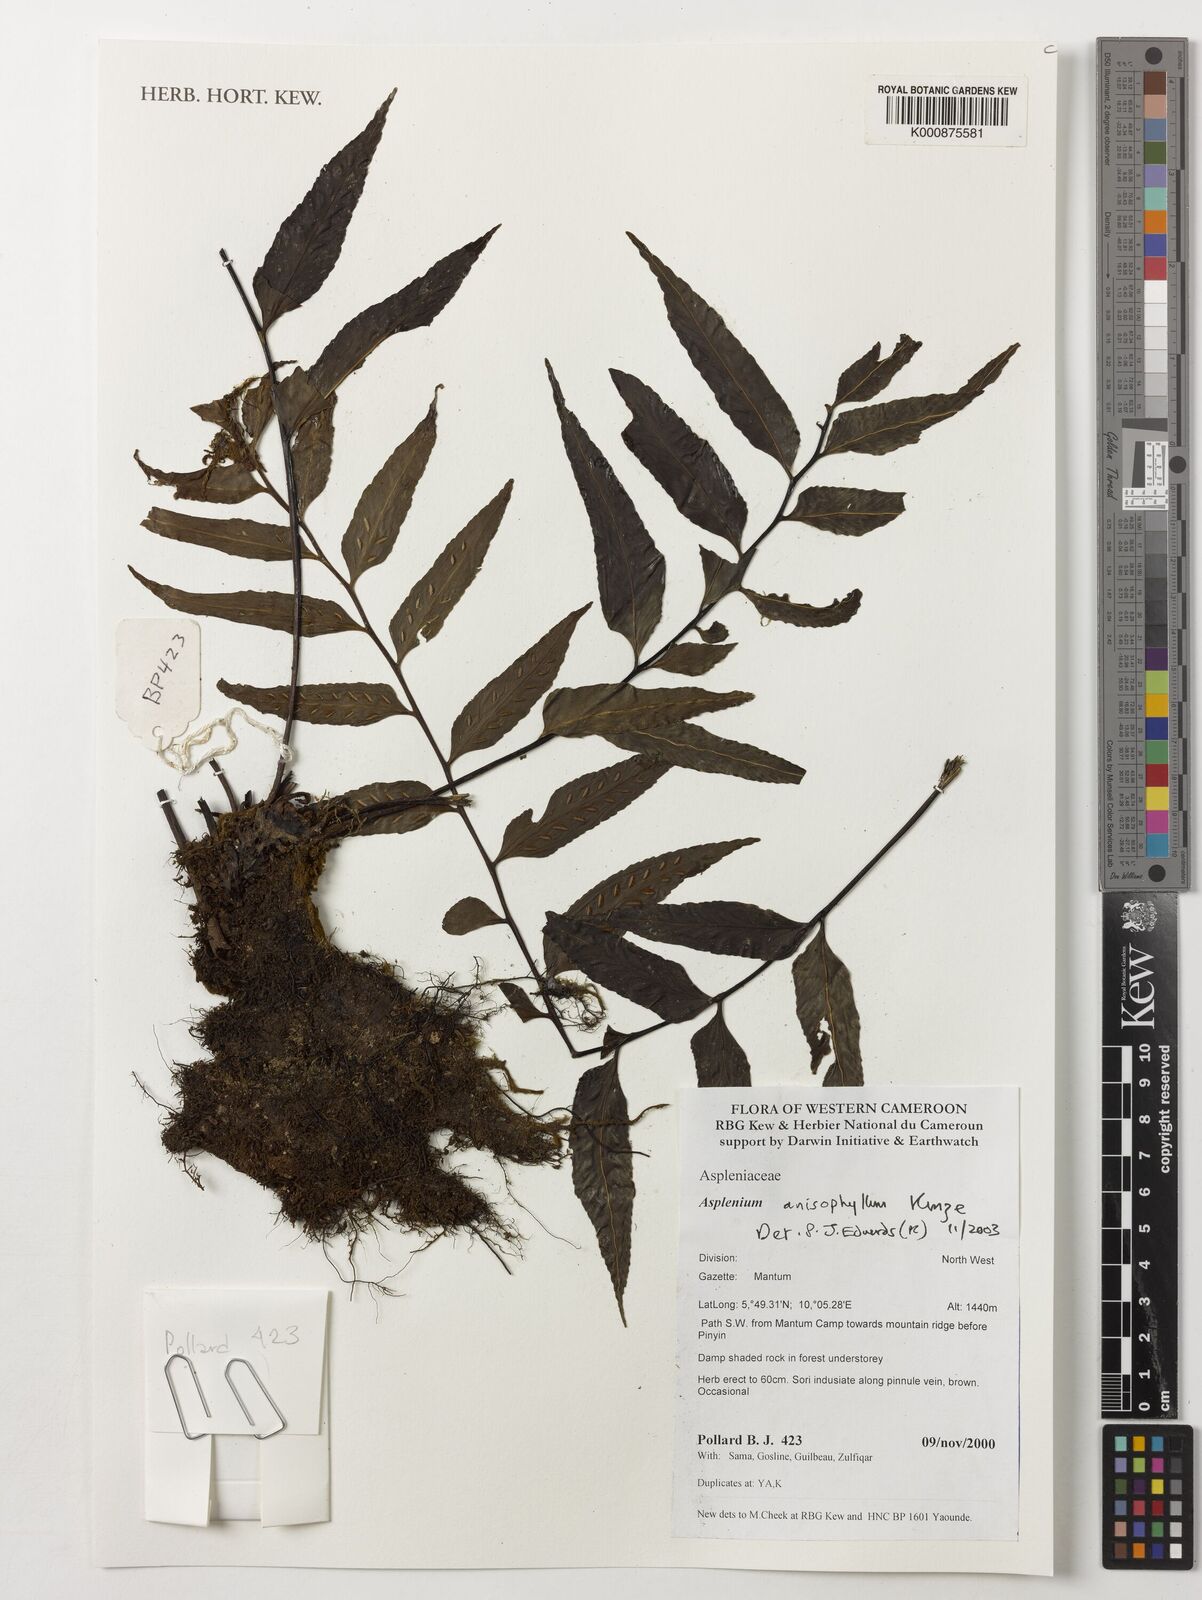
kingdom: Plantae
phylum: Tracheophyta
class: Polypodiopsida
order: Polypodiales
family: Aspleniaceae
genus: Asplenium
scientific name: Asplenium anisophyllum
